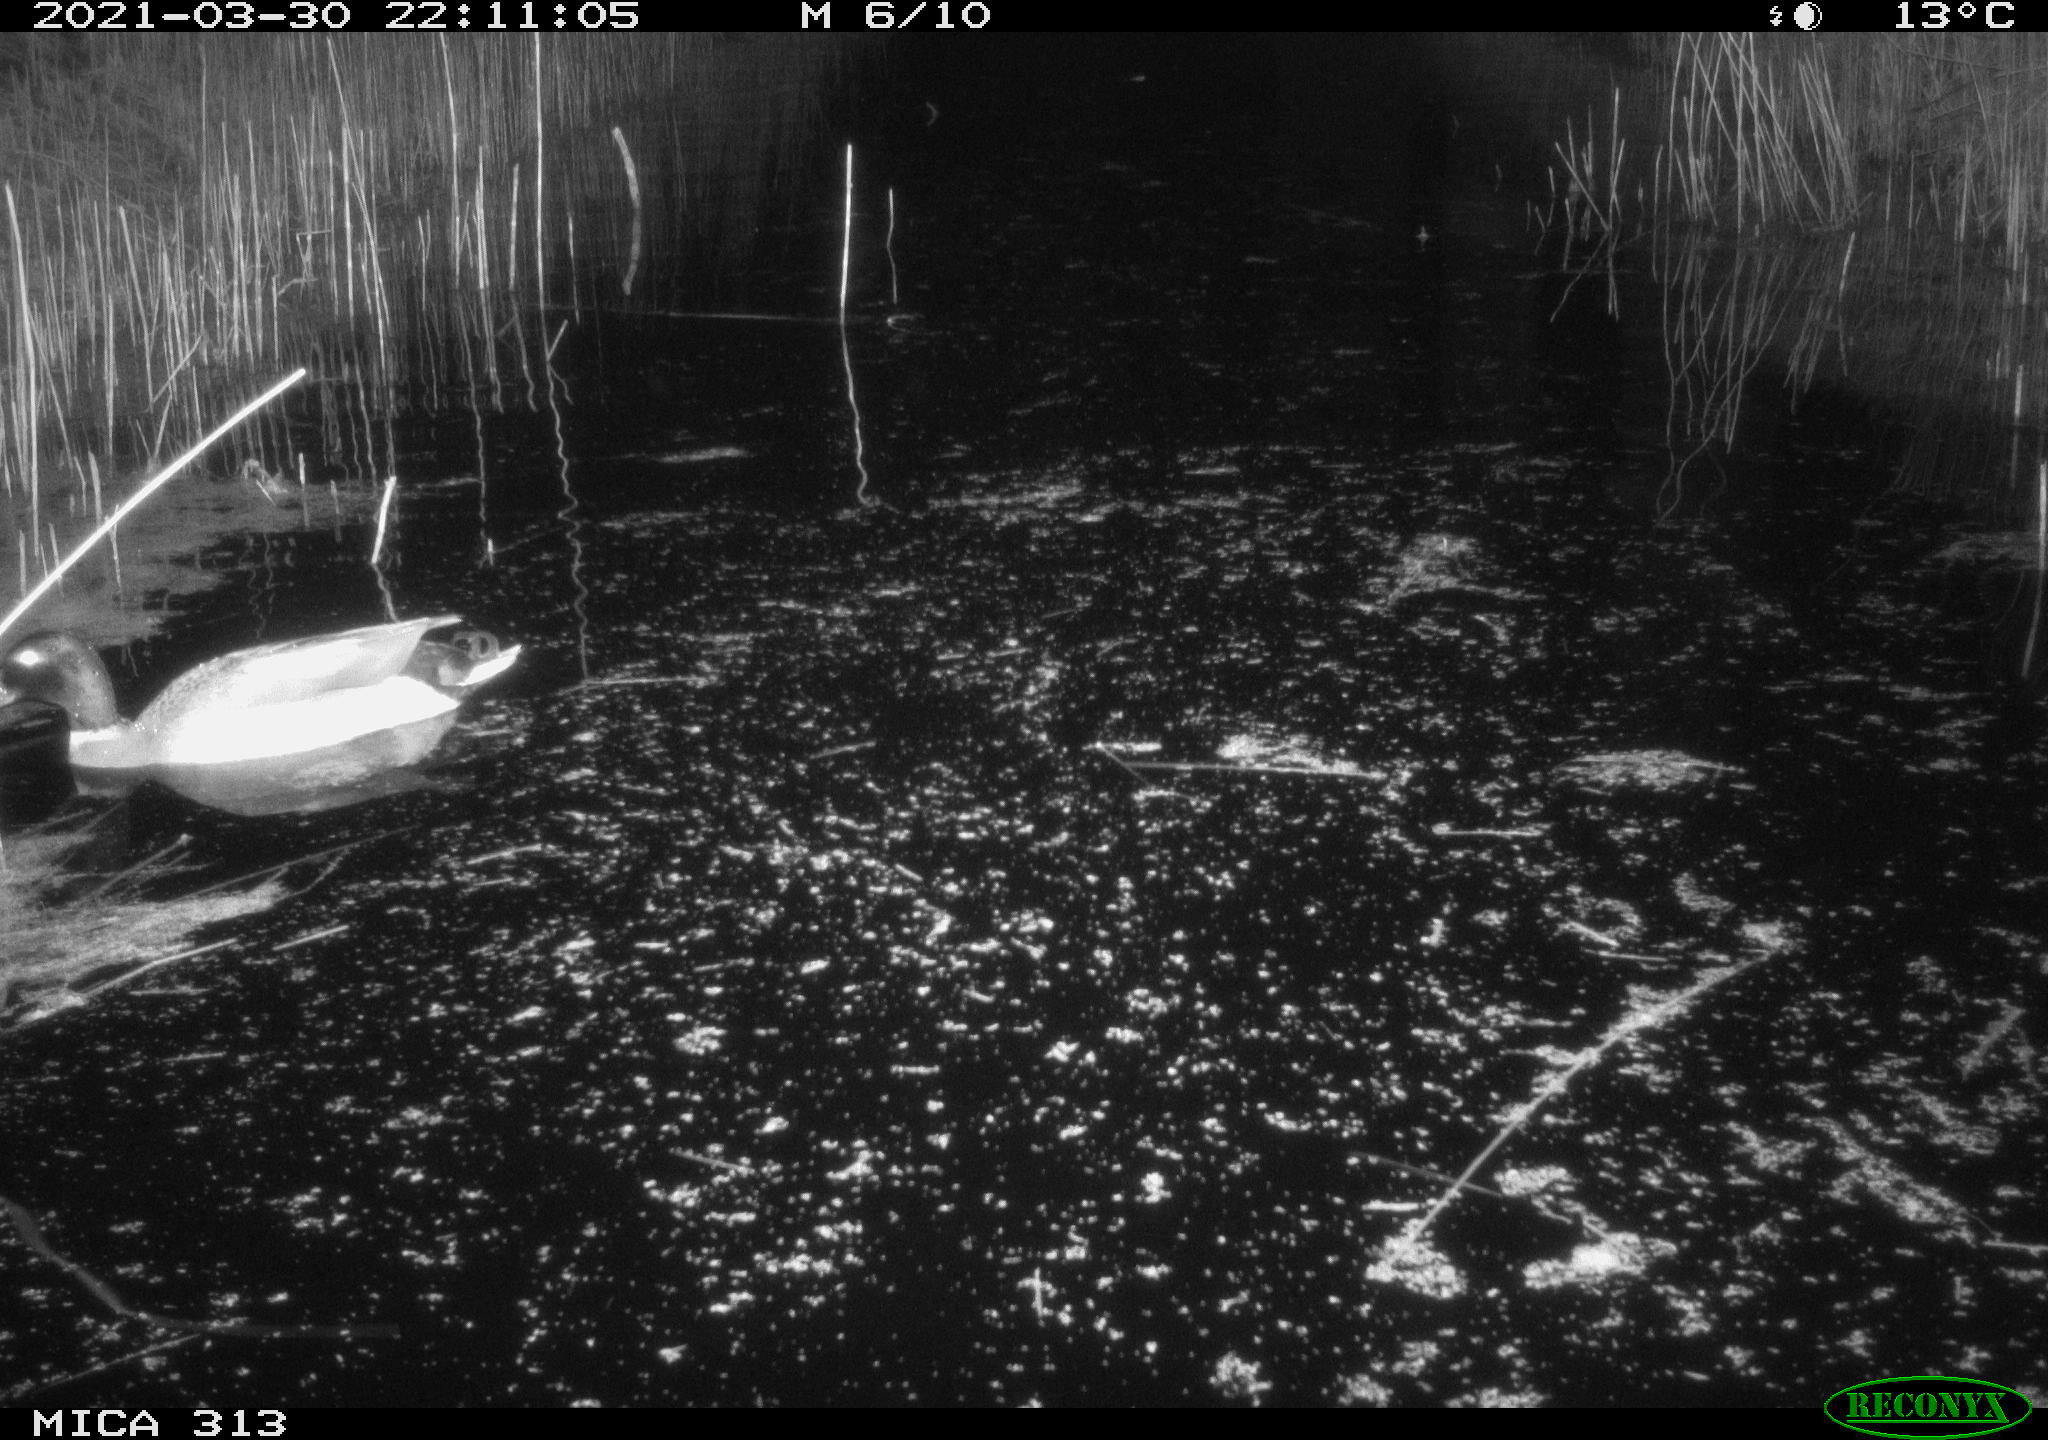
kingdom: Animalia
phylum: Chordata
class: Aves
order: Anseriformes
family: Anatidae
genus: Anas
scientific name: Anas platyrhynchos
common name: Mallard
